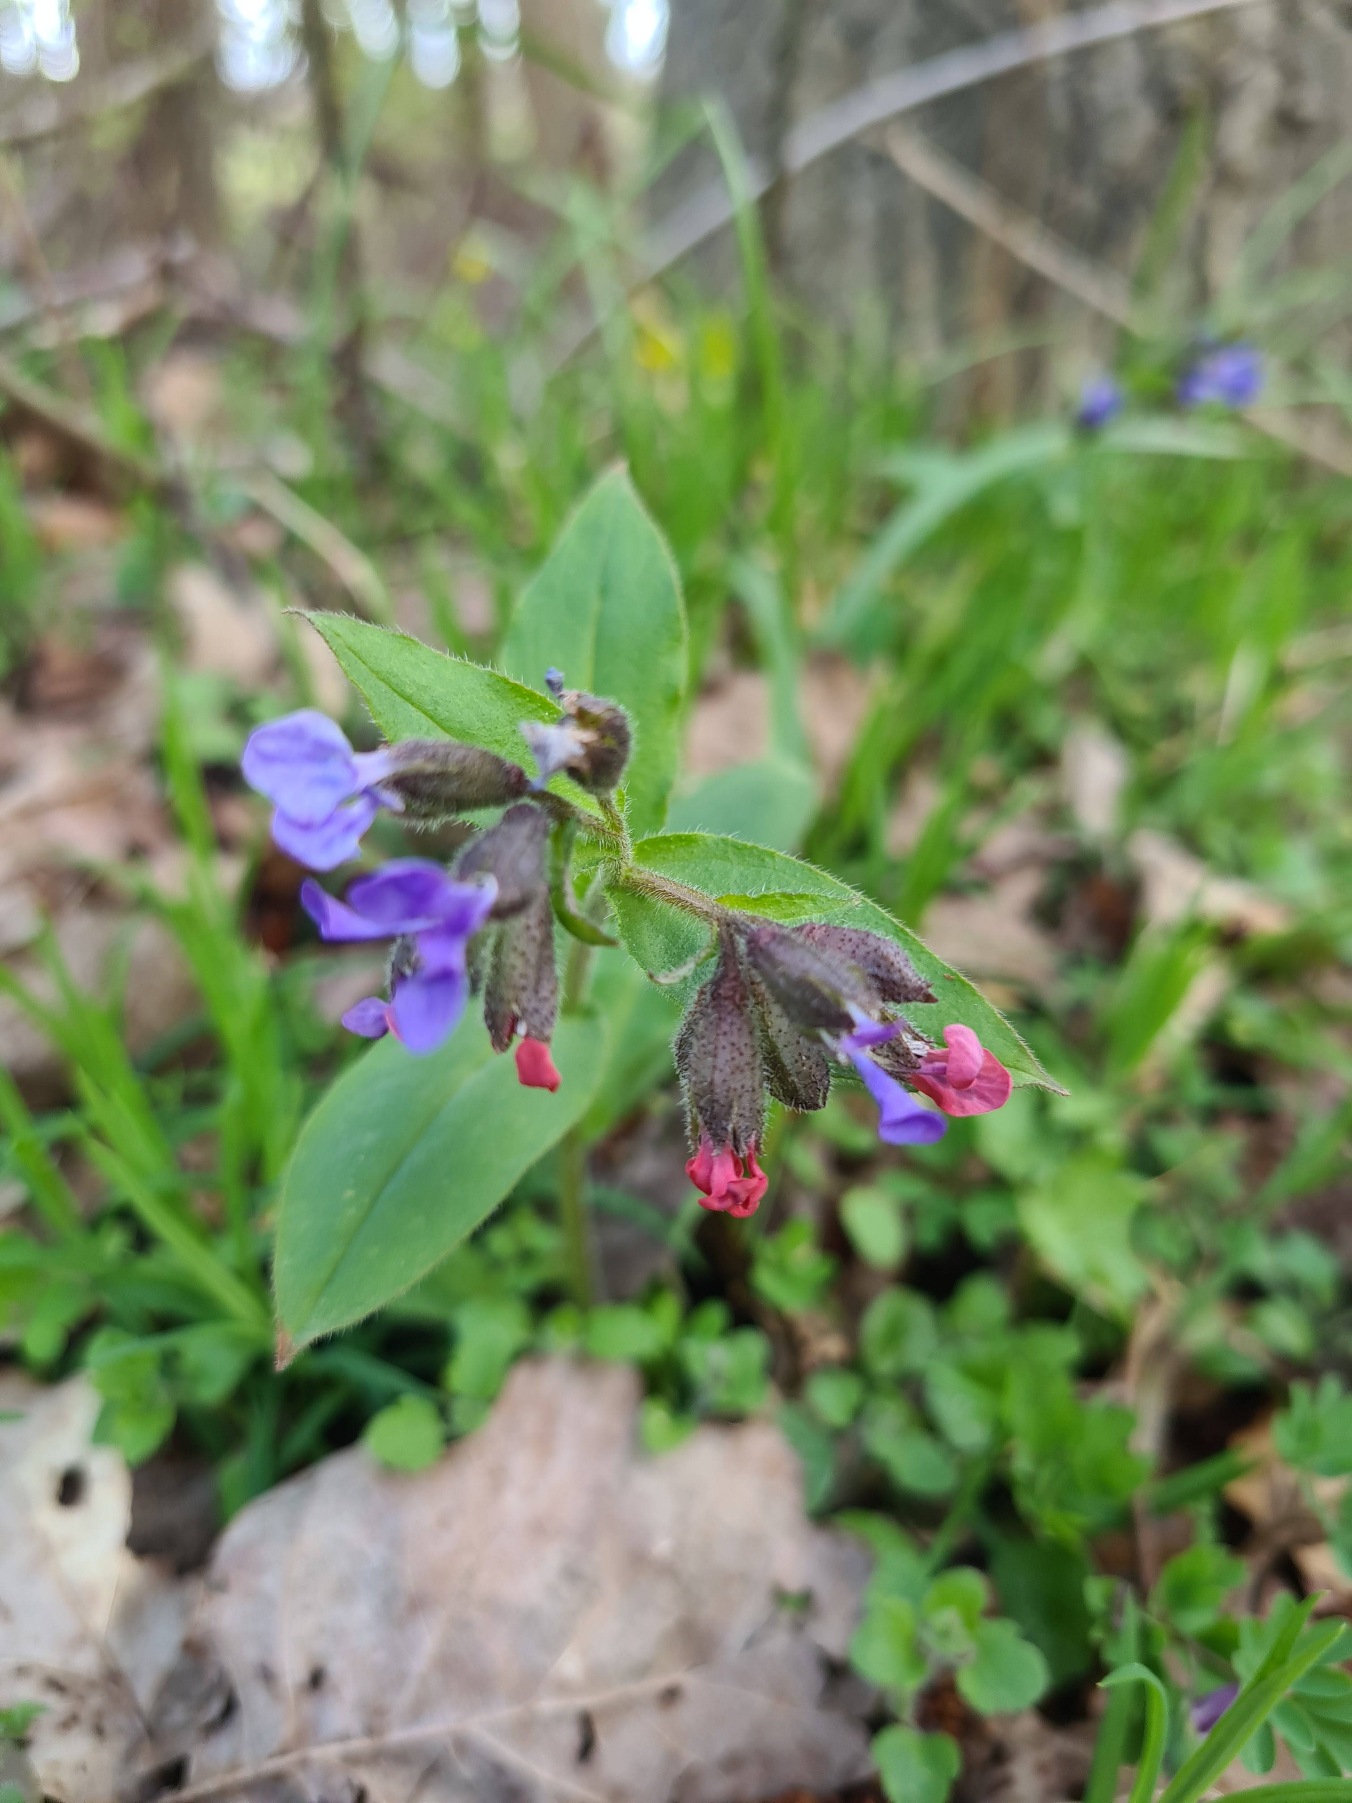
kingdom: Plantae
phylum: Tracheophyta
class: Magnoliopsida
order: Boraginales
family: Boraginaceae
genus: Pulmonaria
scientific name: Pulmonaria obscura
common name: Almindelig lungeurt
